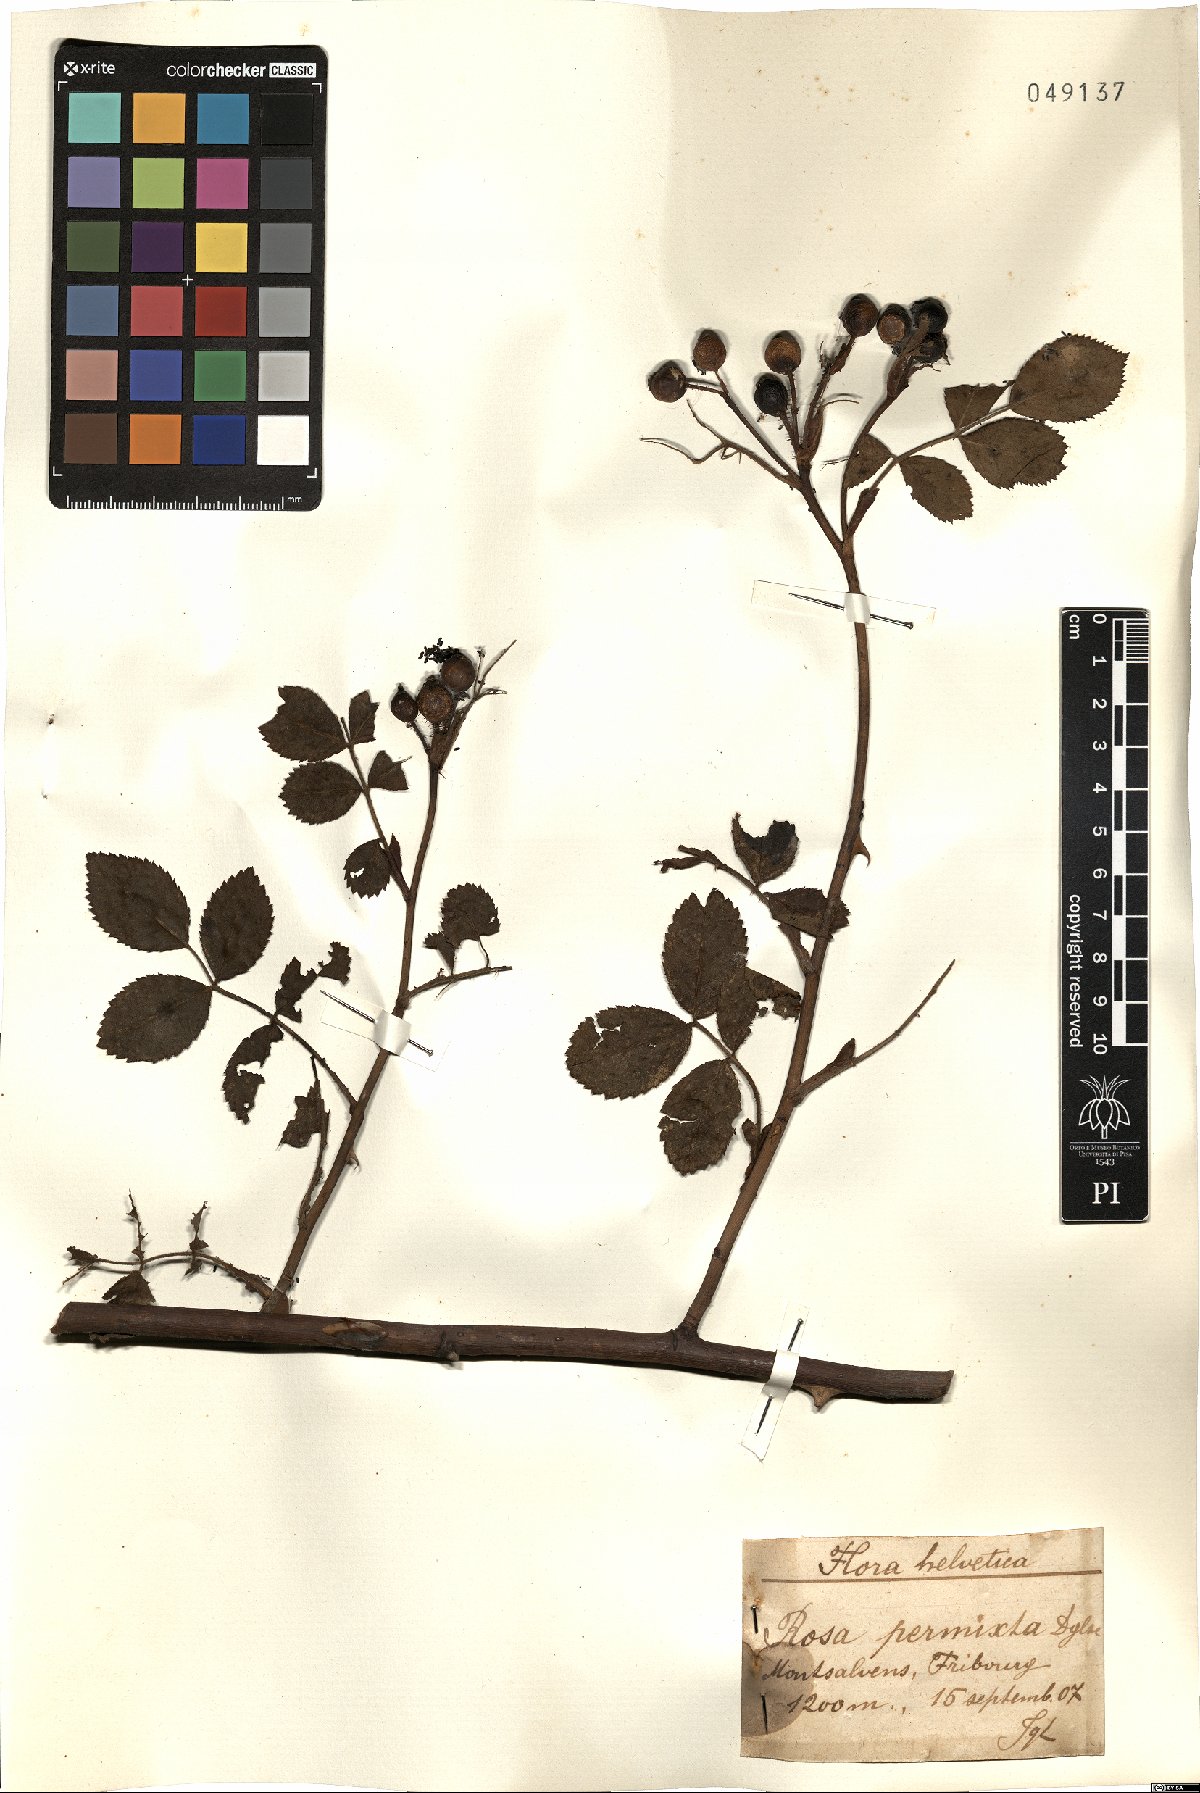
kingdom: Plantae
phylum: Tracheophyta
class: Magnoliopsida
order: Rosales
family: Rosaceae
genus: Rosa
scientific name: Rosa micrantha
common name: Small-flowered sweet-briar
